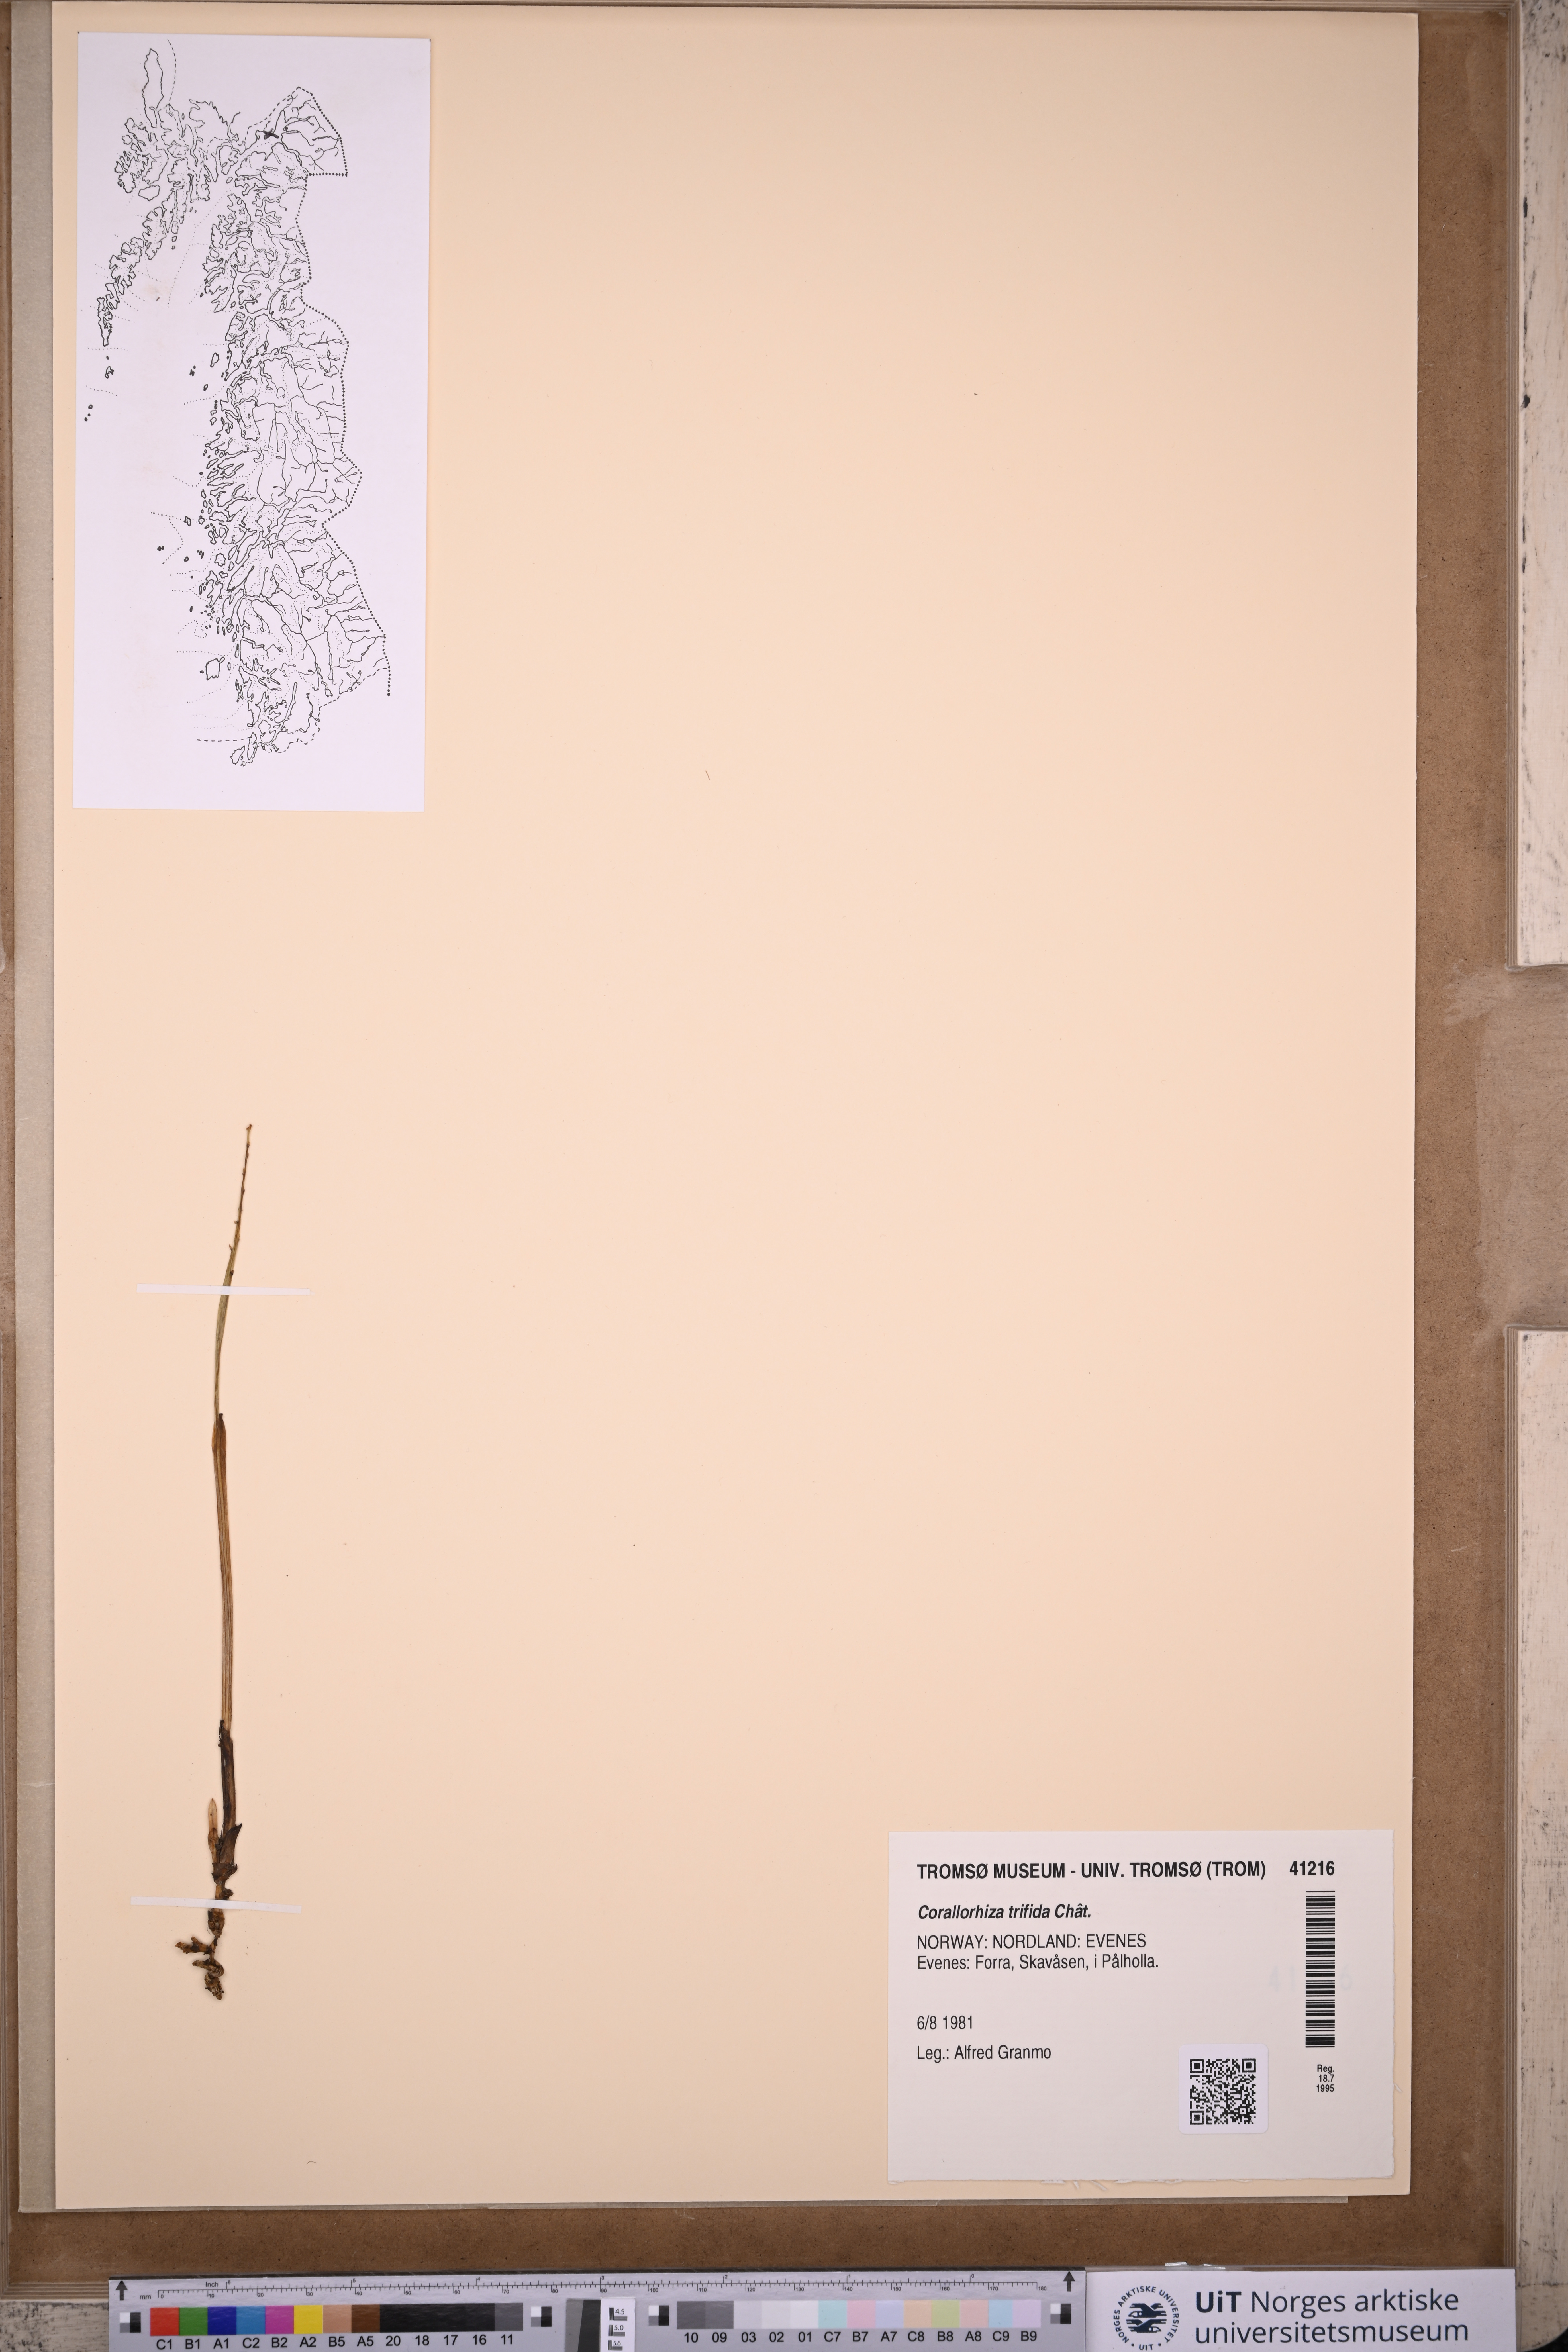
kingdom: Plantae
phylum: Tracheophyta
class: Liliopsida
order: Asparagales
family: Orchidaceae
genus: Corallorhiza
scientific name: Corallorhiza trifida
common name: Yellow coralroot
